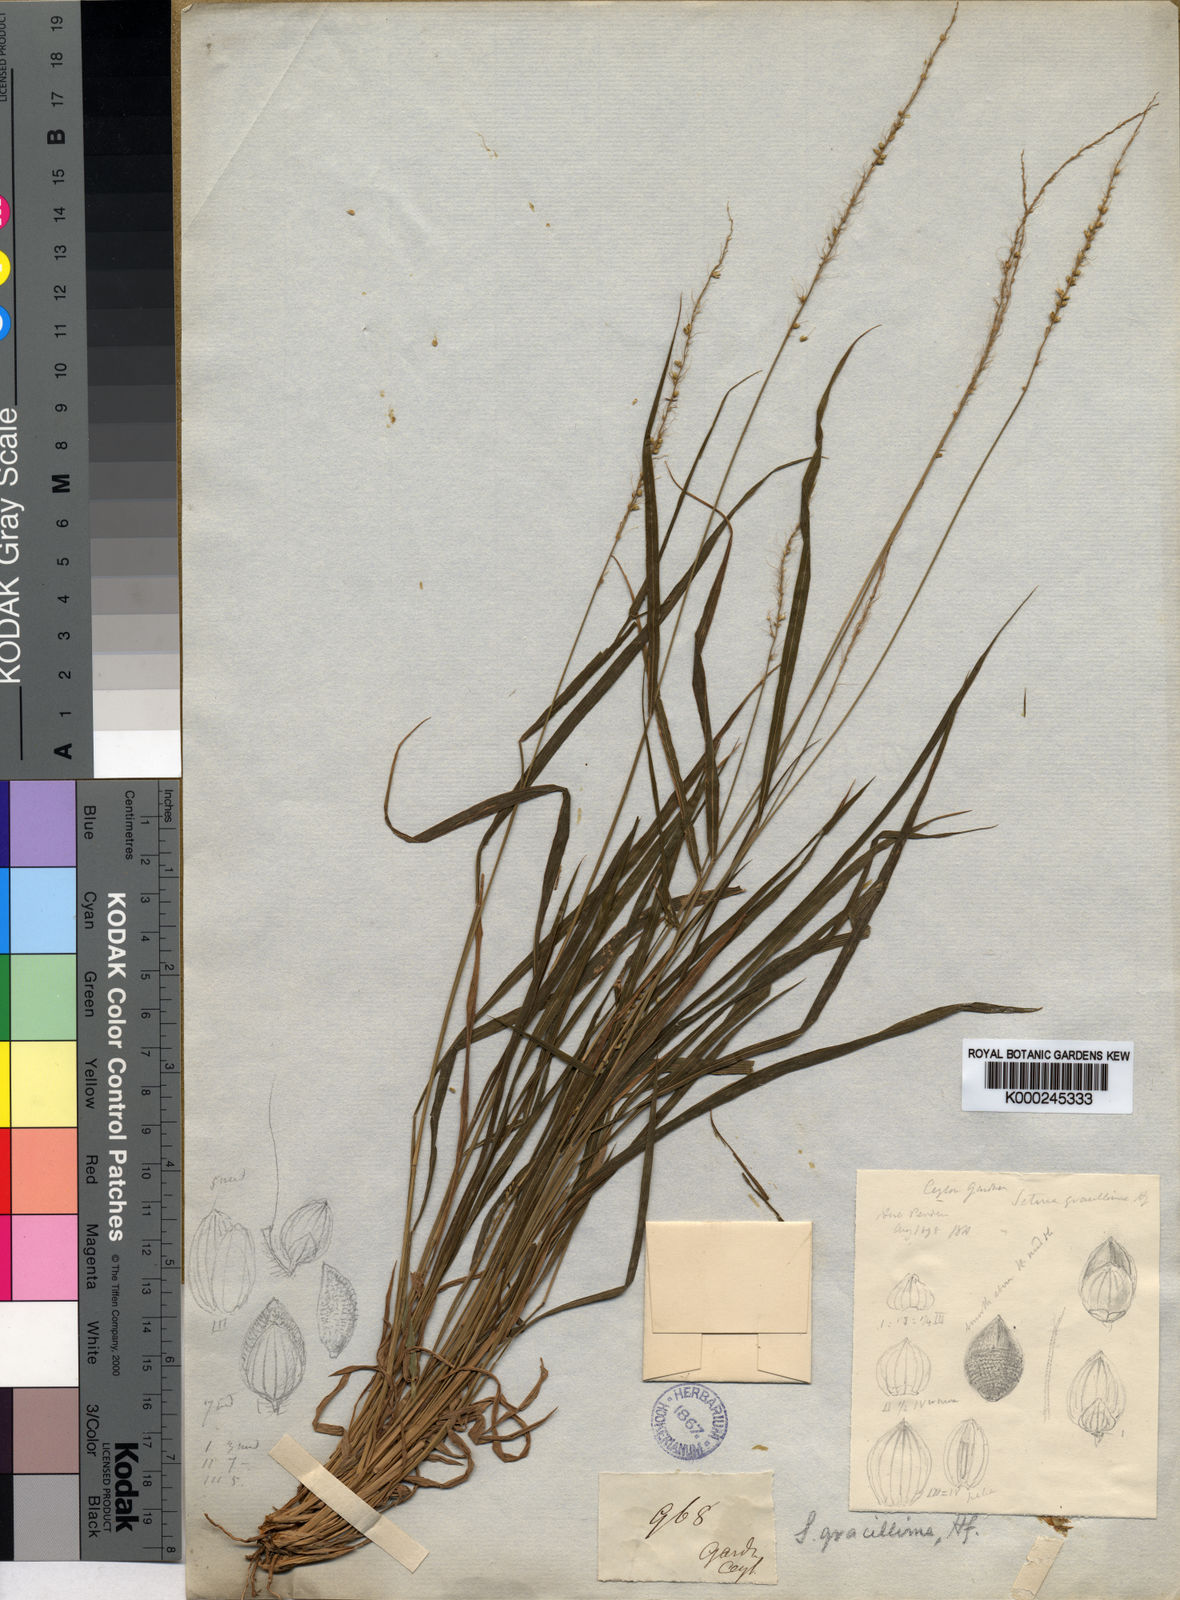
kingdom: Plantae
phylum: Tracheophyta
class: Liliopsida
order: Poales
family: Poaceae
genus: Setaria
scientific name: Setaria gracillima
